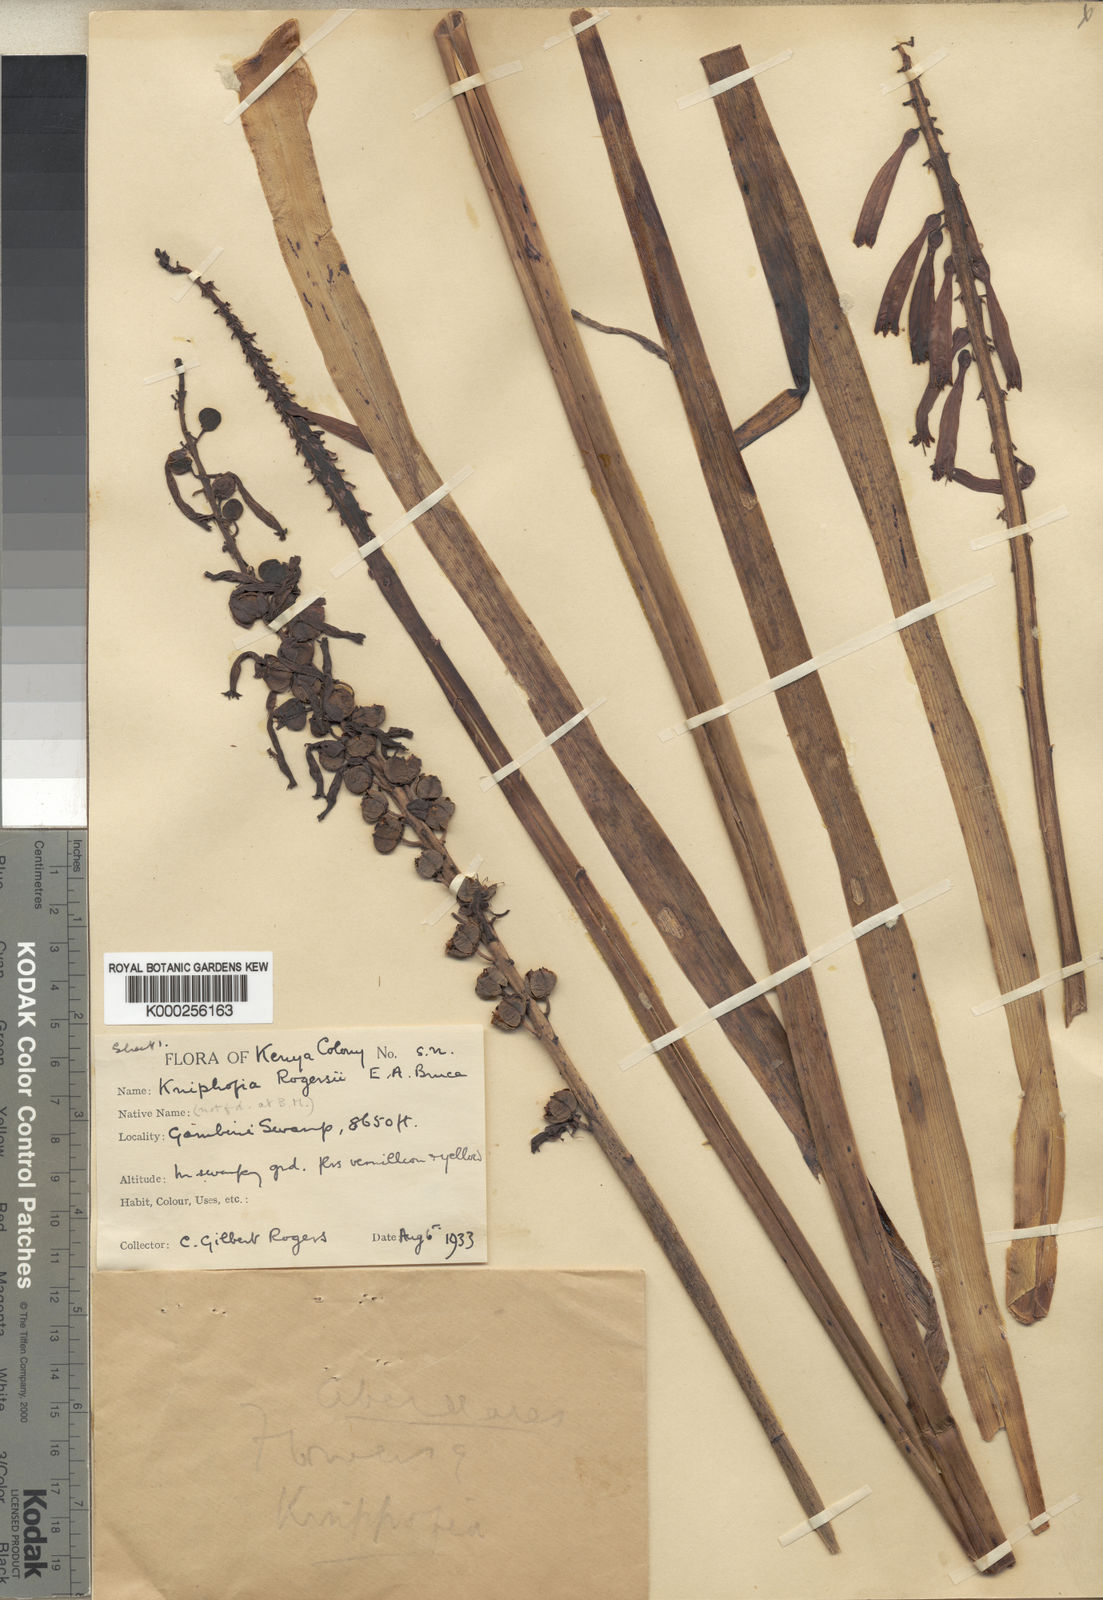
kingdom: Plantae
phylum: Tracheophyta
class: Liliopsida
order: Asparagales
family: Asphodelaceae
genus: Kniphofia
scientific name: Kniphofia thomsonii
